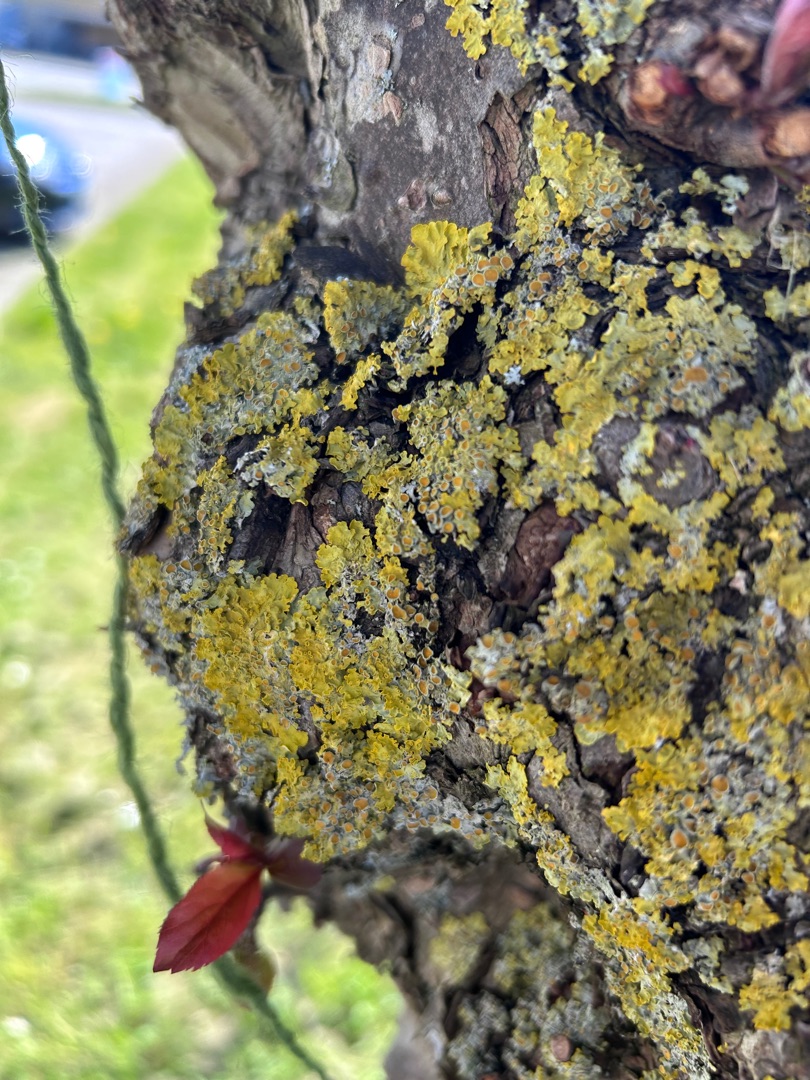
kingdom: Fungi
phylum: Ascomycota
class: Lecanoromycetes
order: Teloschistales
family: Teloschistaceae
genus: Xanthoria
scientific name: Xanthoria parietina
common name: Almindelig væggelav
